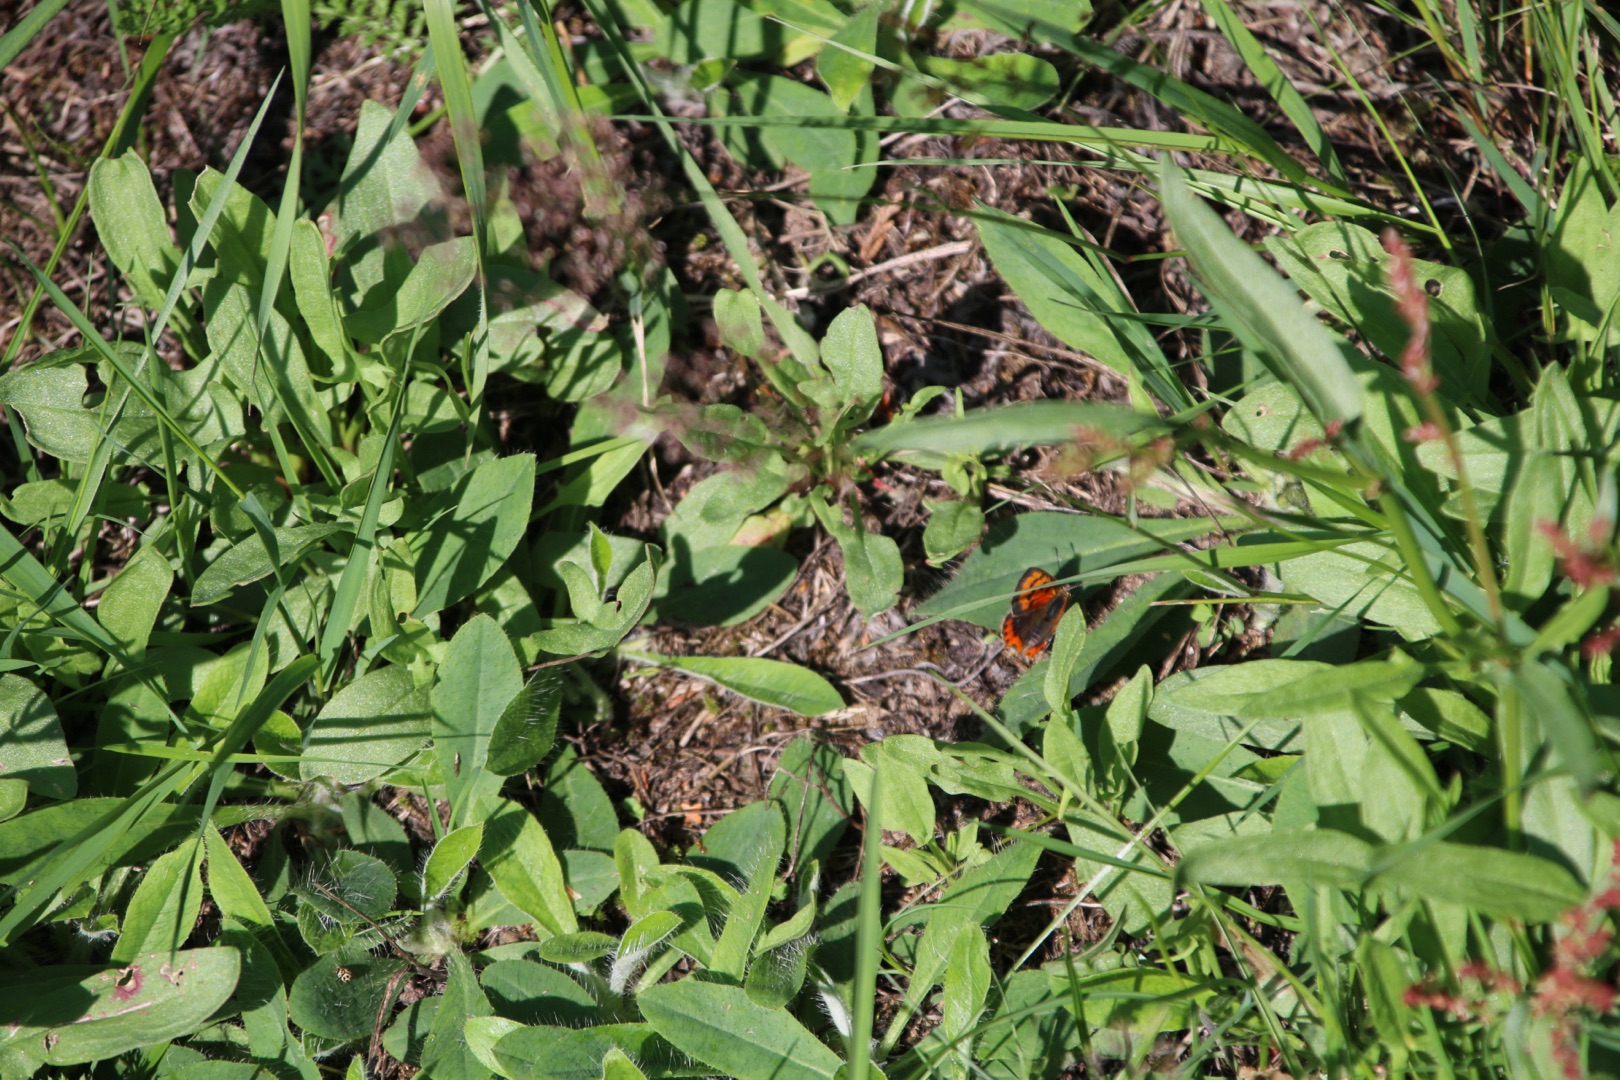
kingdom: Animalia
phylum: Arthropoda
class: Insecta
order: Lepidoptera
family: Lycaenidae
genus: Lycaena
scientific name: Lycaena phlaeas
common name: Lille ildfugl
